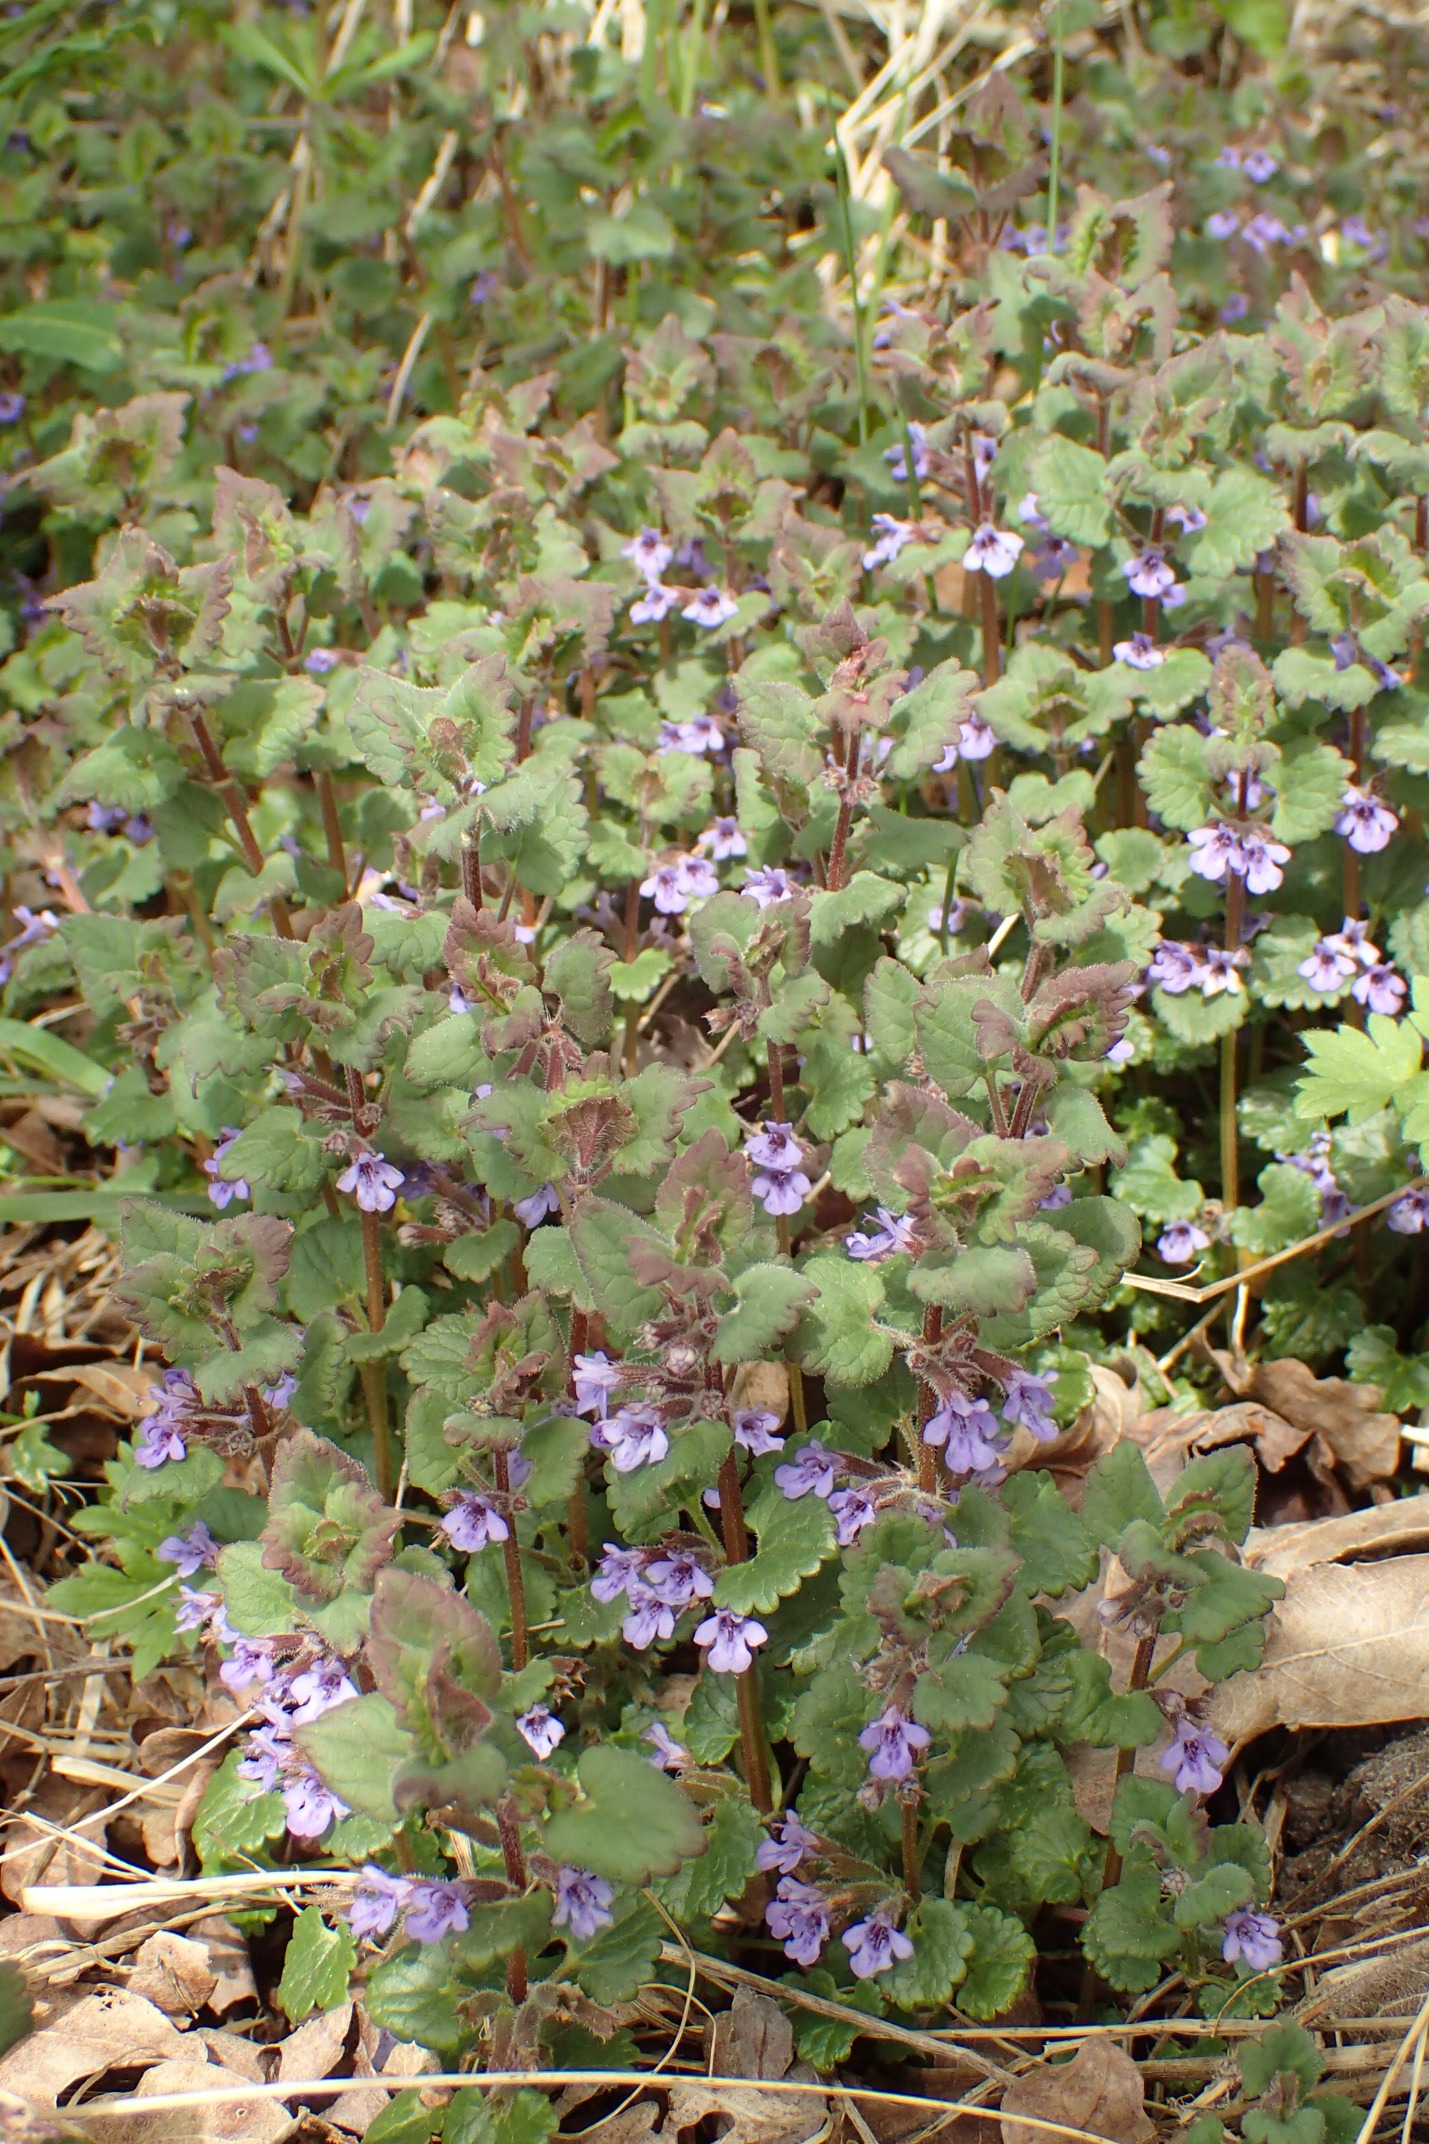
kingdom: Plantae
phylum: Tracheophyta
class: Magnoliopsida
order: Lamiales
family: Lamiaceae
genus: Glechoma
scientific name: Glechoma hederacea
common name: Korsknap
